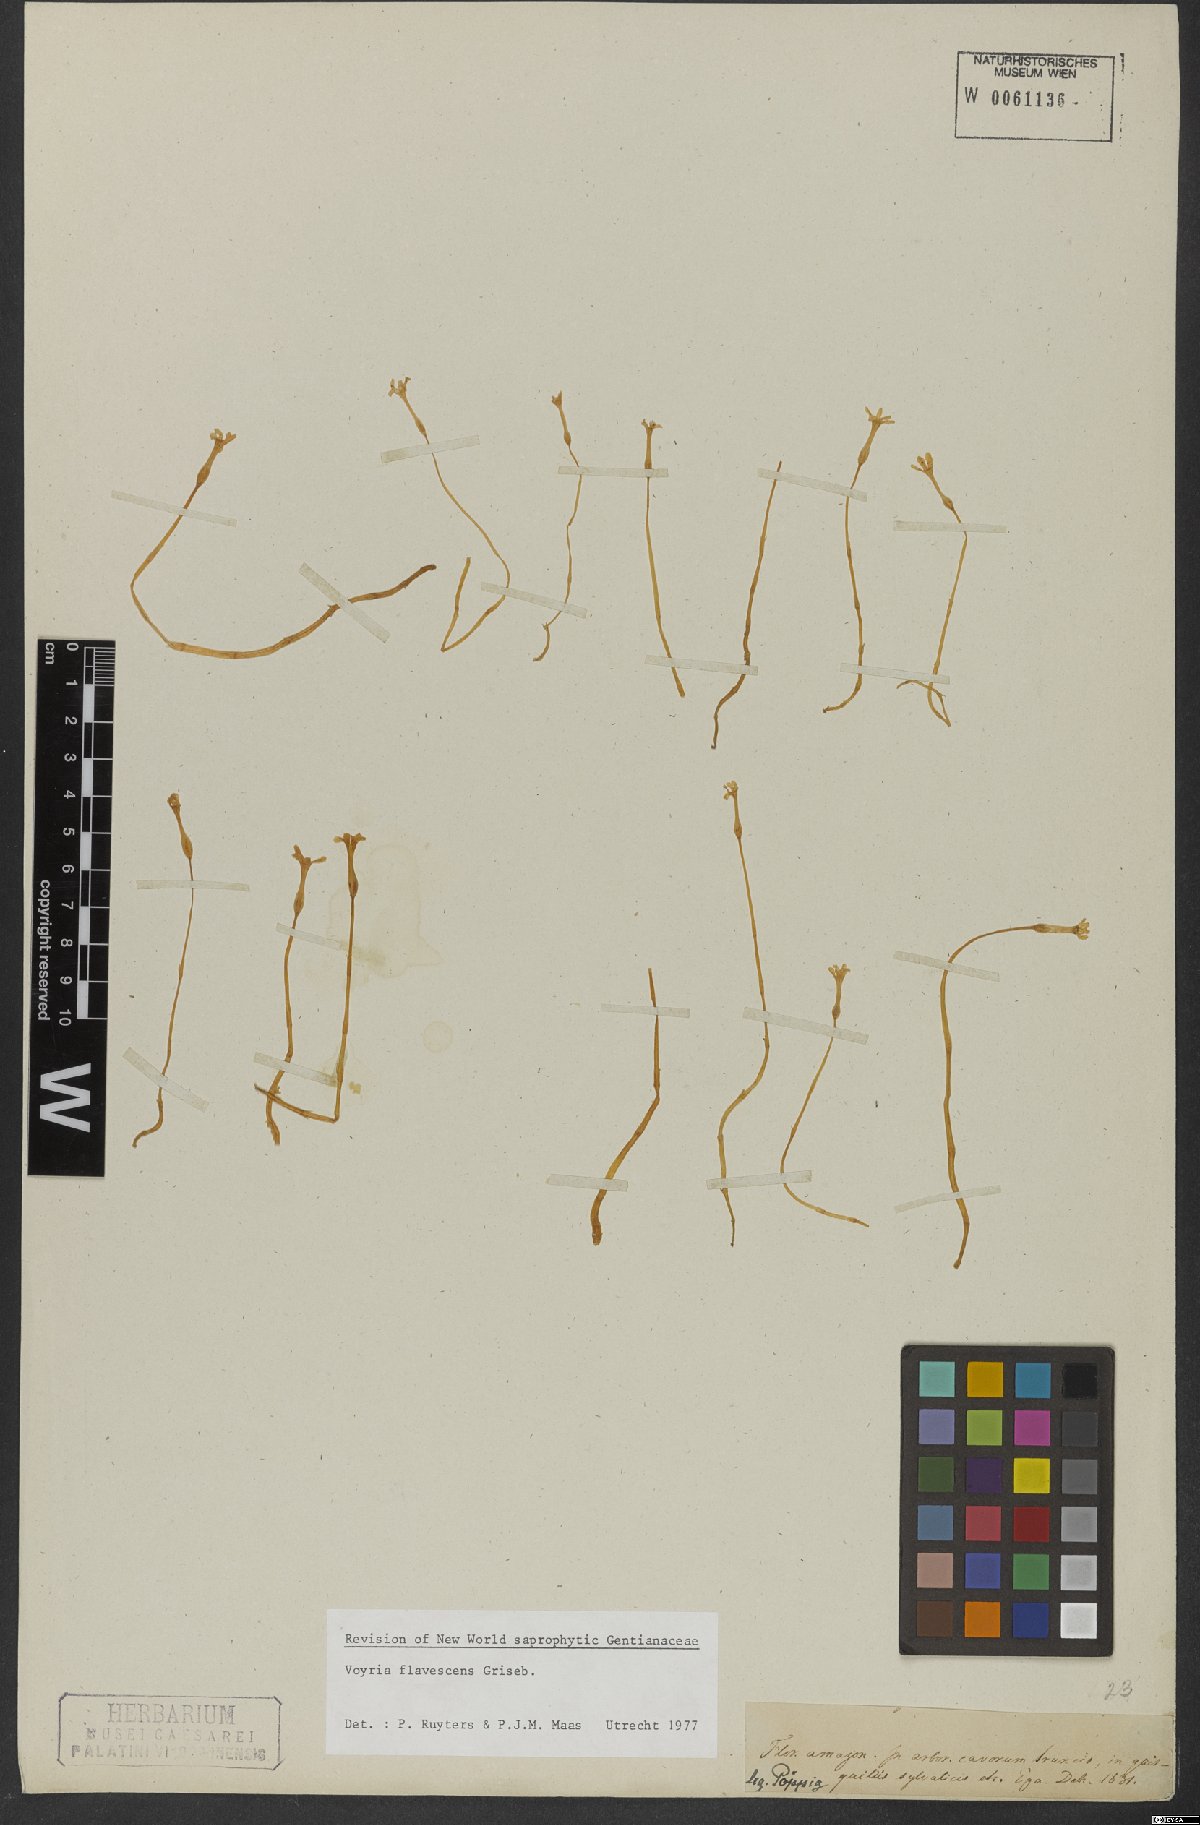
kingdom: Plantae
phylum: Tracheophyta
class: Magnoliopsida
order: Gentianales
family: Gentianaceae
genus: Voyria
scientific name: Voyria flavescens
